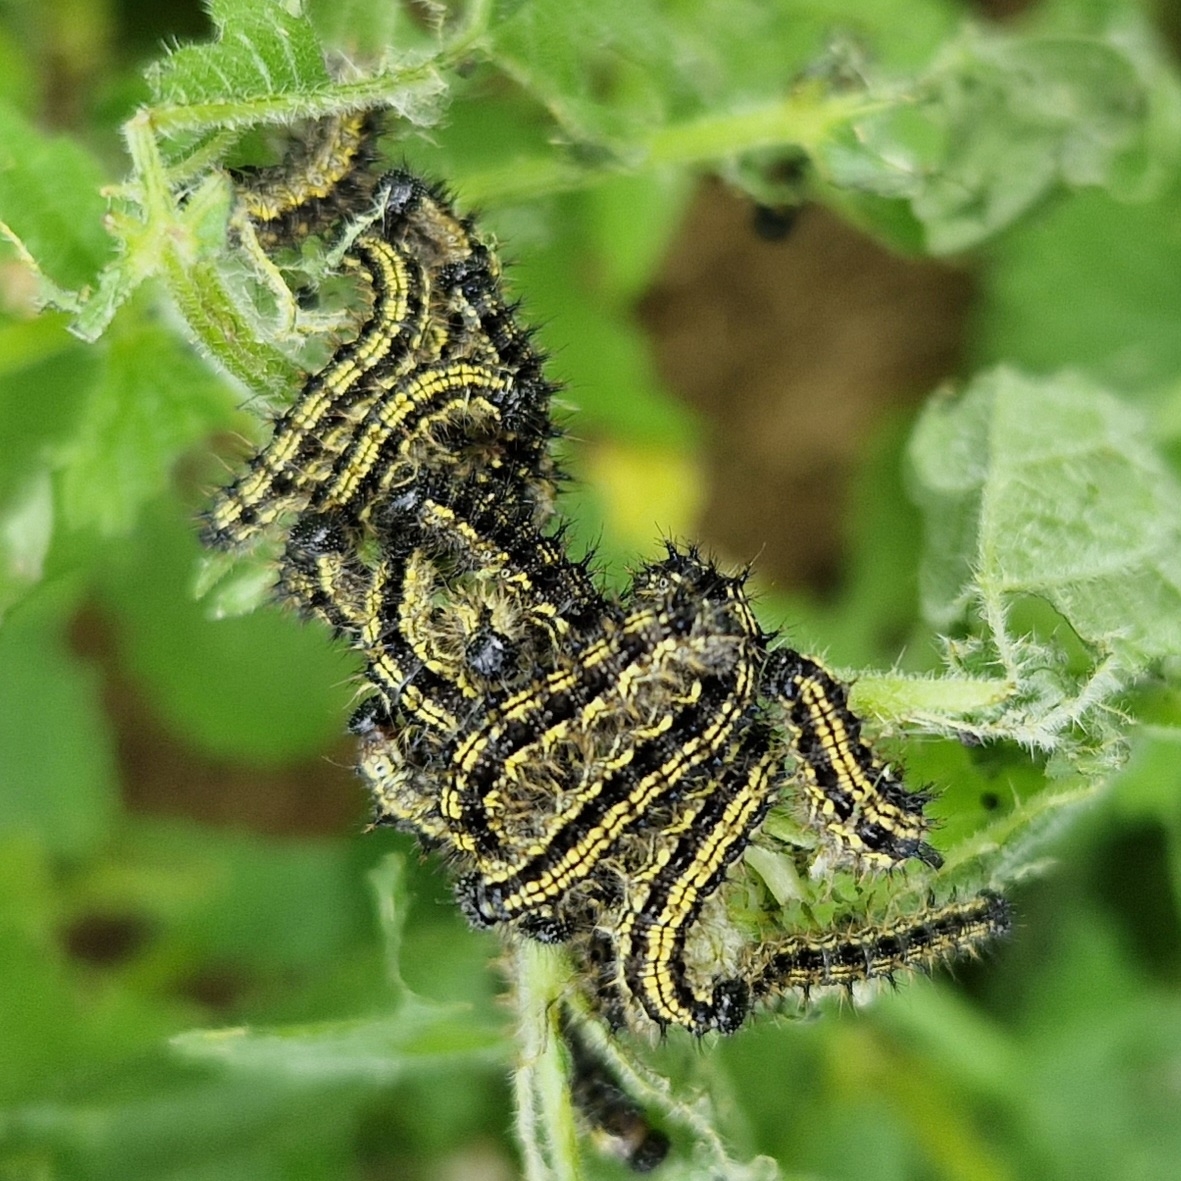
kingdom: Animalia
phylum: Arthropoda
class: Insecta
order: Lepidoptera
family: Nymphalidae
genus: Aglais
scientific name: Aglais urticae
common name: Nældens takvinge
